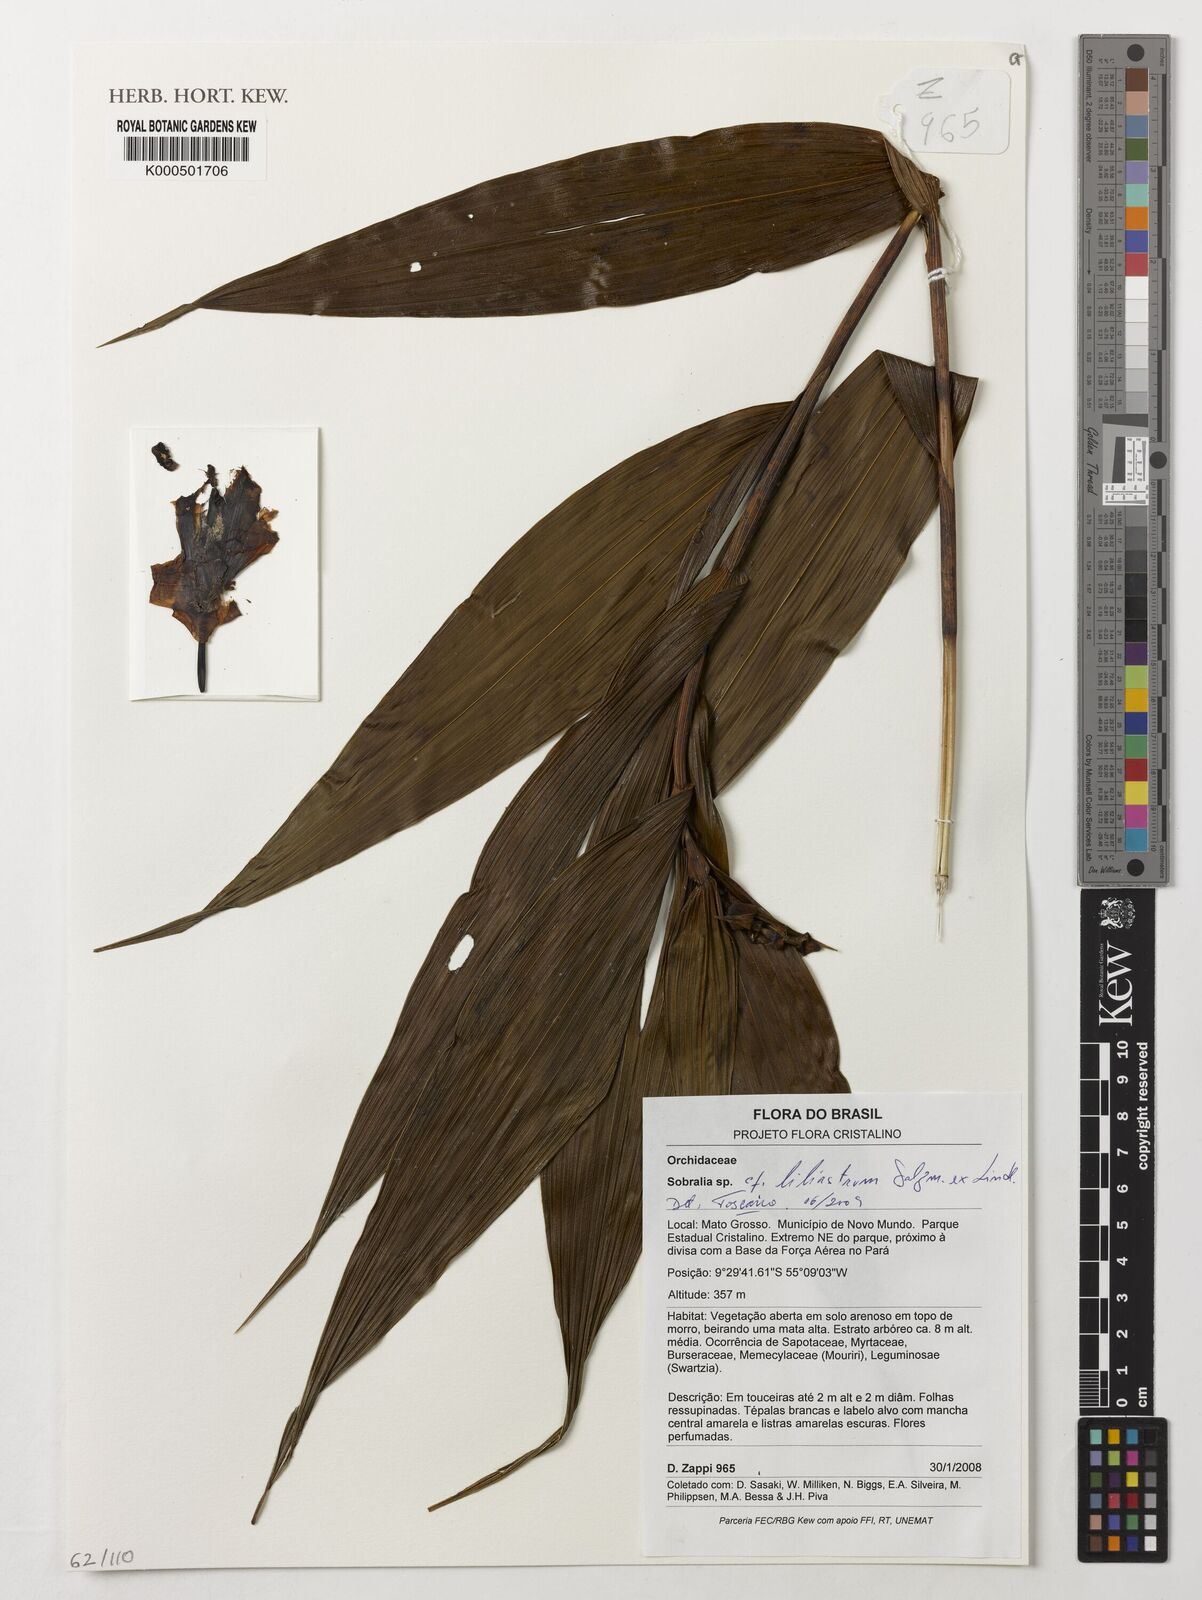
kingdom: Plantae
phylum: Tracheophyta
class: Liliopsida
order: Asparagales
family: Orchidaceae
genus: Sobralia
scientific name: Sobralia liliastrum
